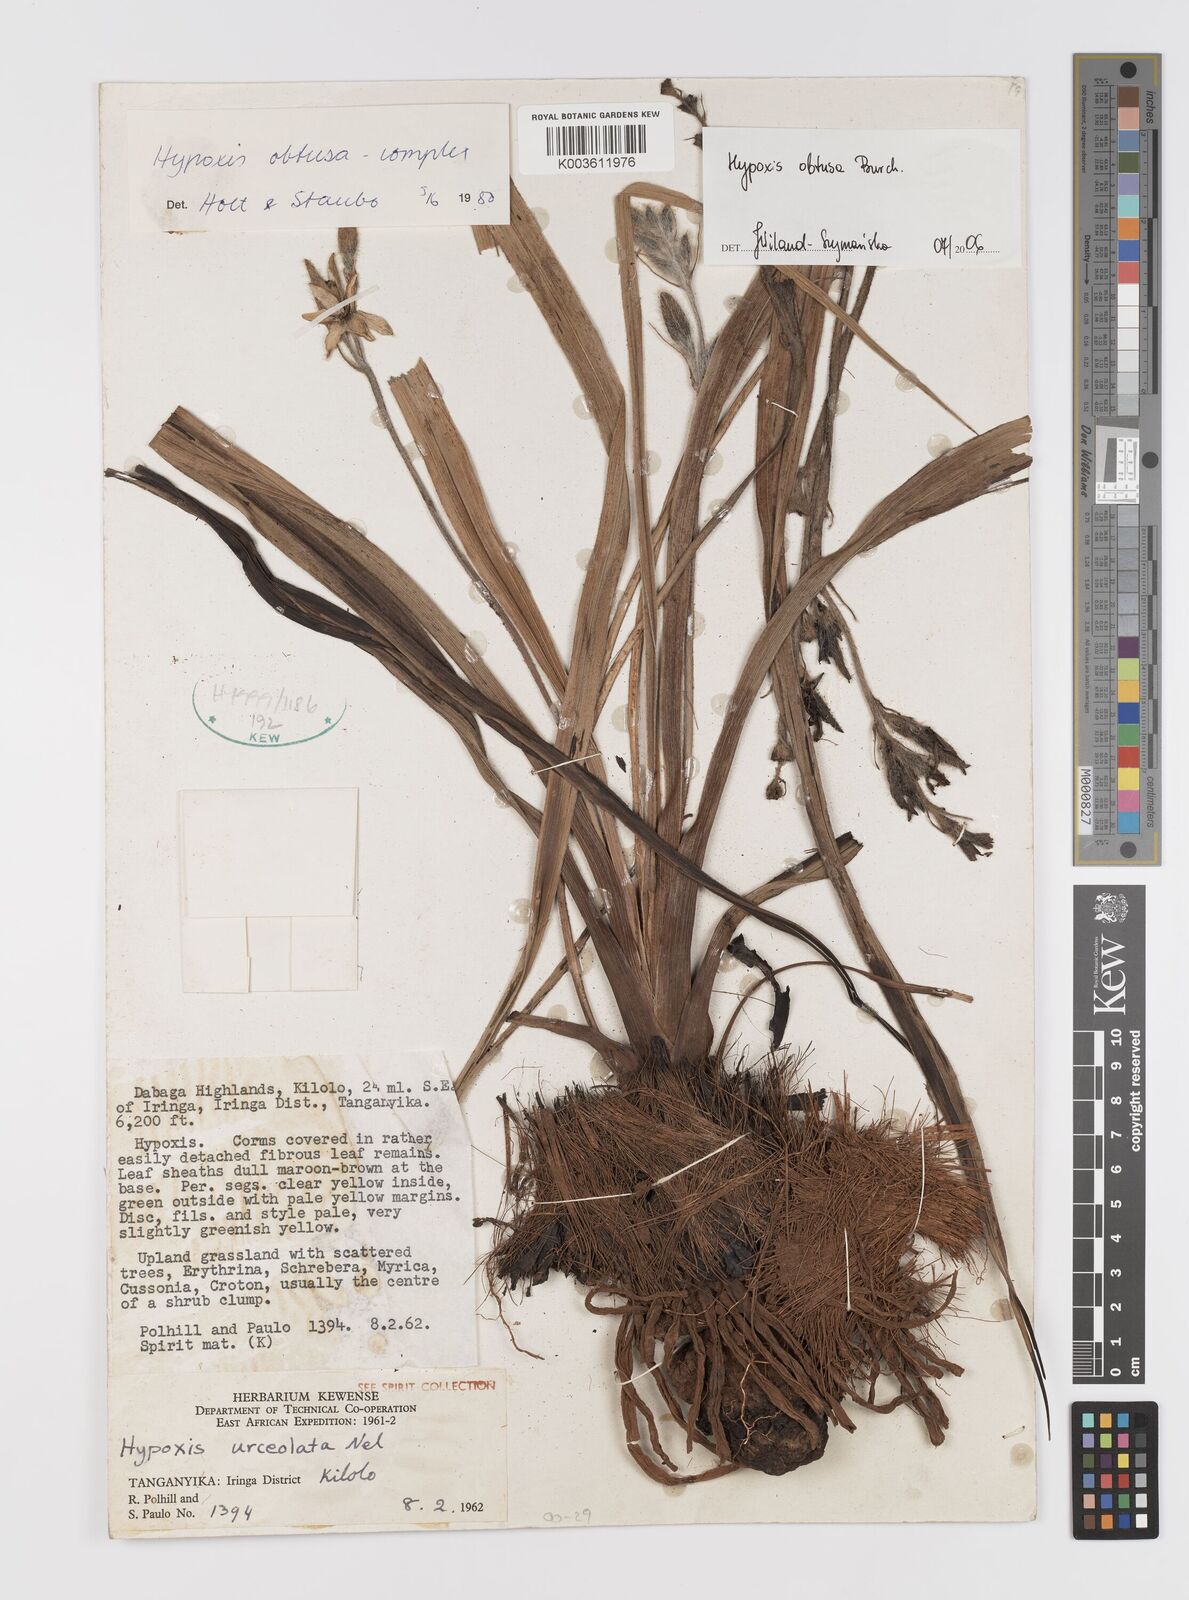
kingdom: Plantae
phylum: Tracheophyta
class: Liliopsida
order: Asparagales
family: Hypoxidaceae
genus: Hypoxis
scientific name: Hypoxis obtusa
